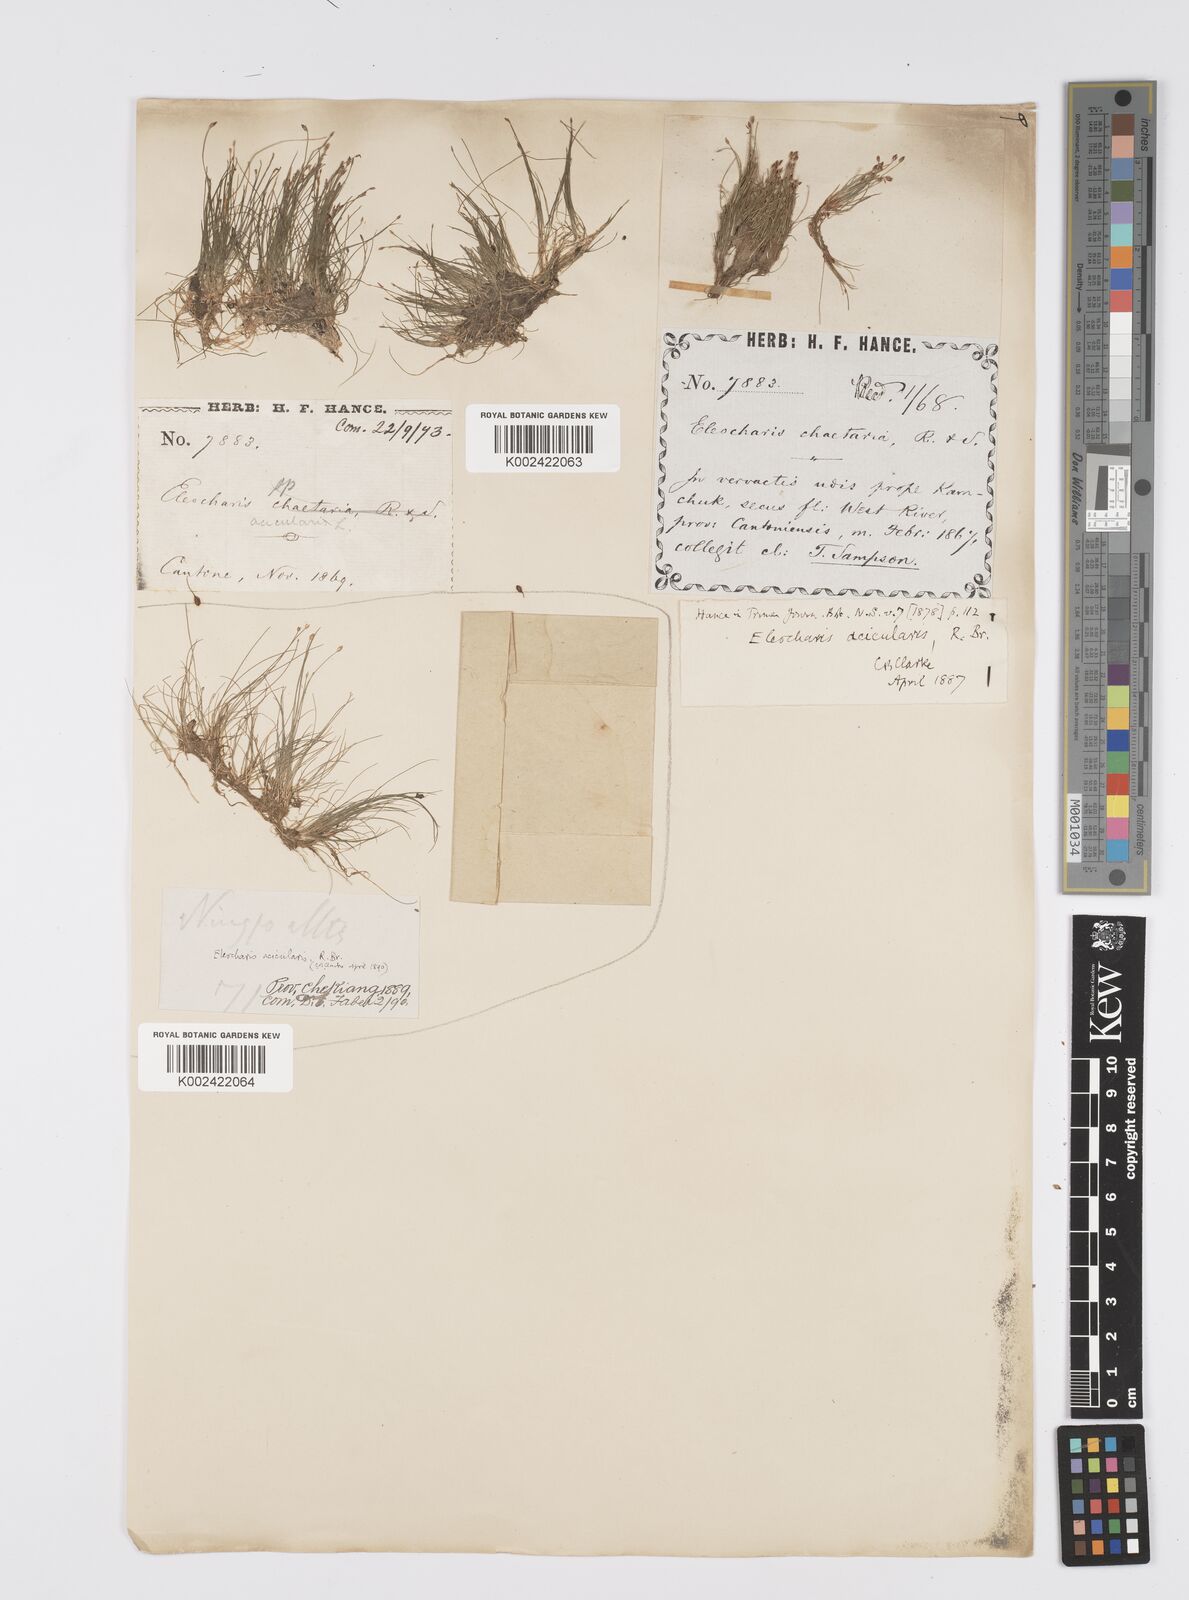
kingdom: Plantae
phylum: Tracheophyta
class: Liliopsida
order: Poales
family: Cyperaceae
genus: Eleocharis
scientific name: Eleocharis acicularis
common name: Needle spike-rush
